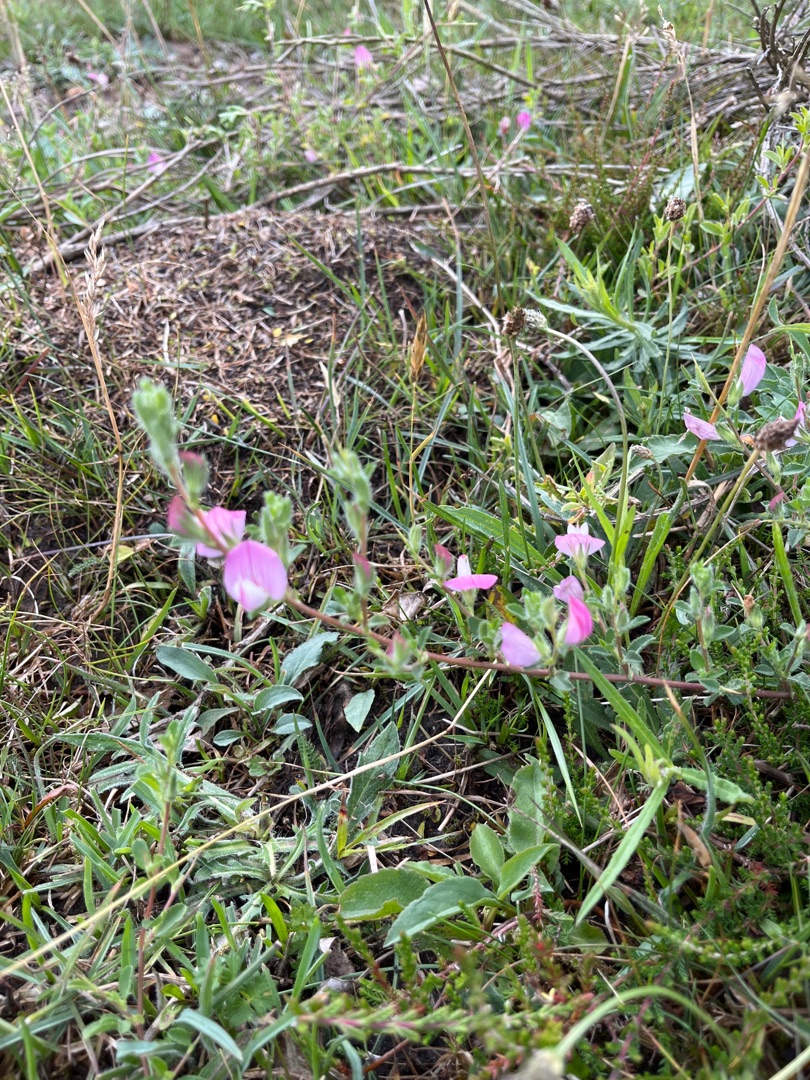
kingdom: Plantae
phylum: Tracheophyta
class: Magnoliopsida
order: Fabales
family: Fabaceae
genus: Ononis
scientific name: Ononis spinosa
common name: Mark-krageklo
